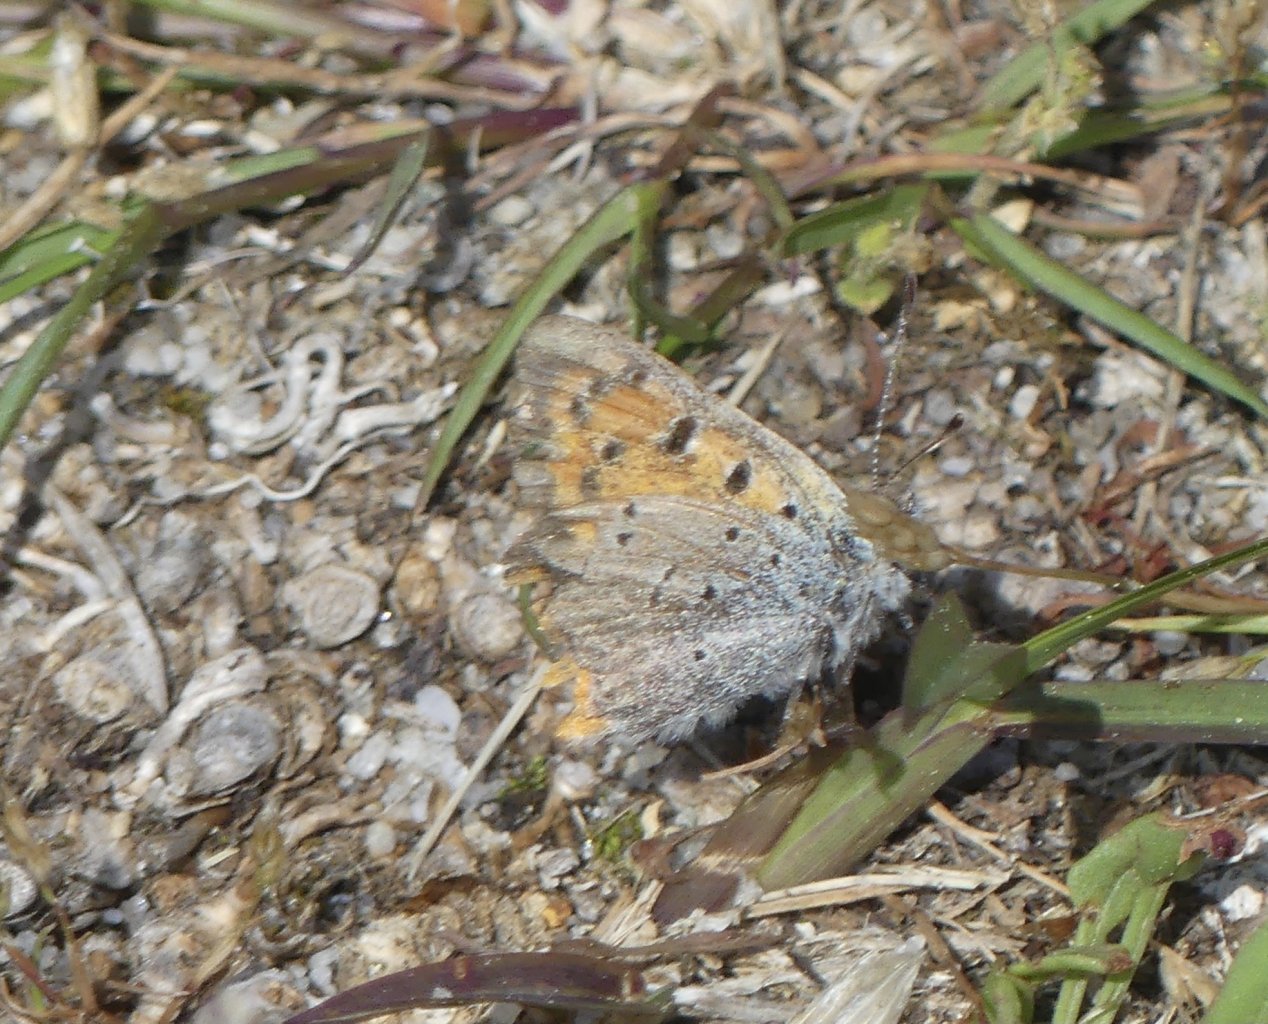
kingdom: Animalia
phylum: Arthropoda
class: Insecta
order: Lepidoptera
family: Lycaenidae
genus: Lycaena
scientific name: Lycaena phlaeas
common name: American Copper
